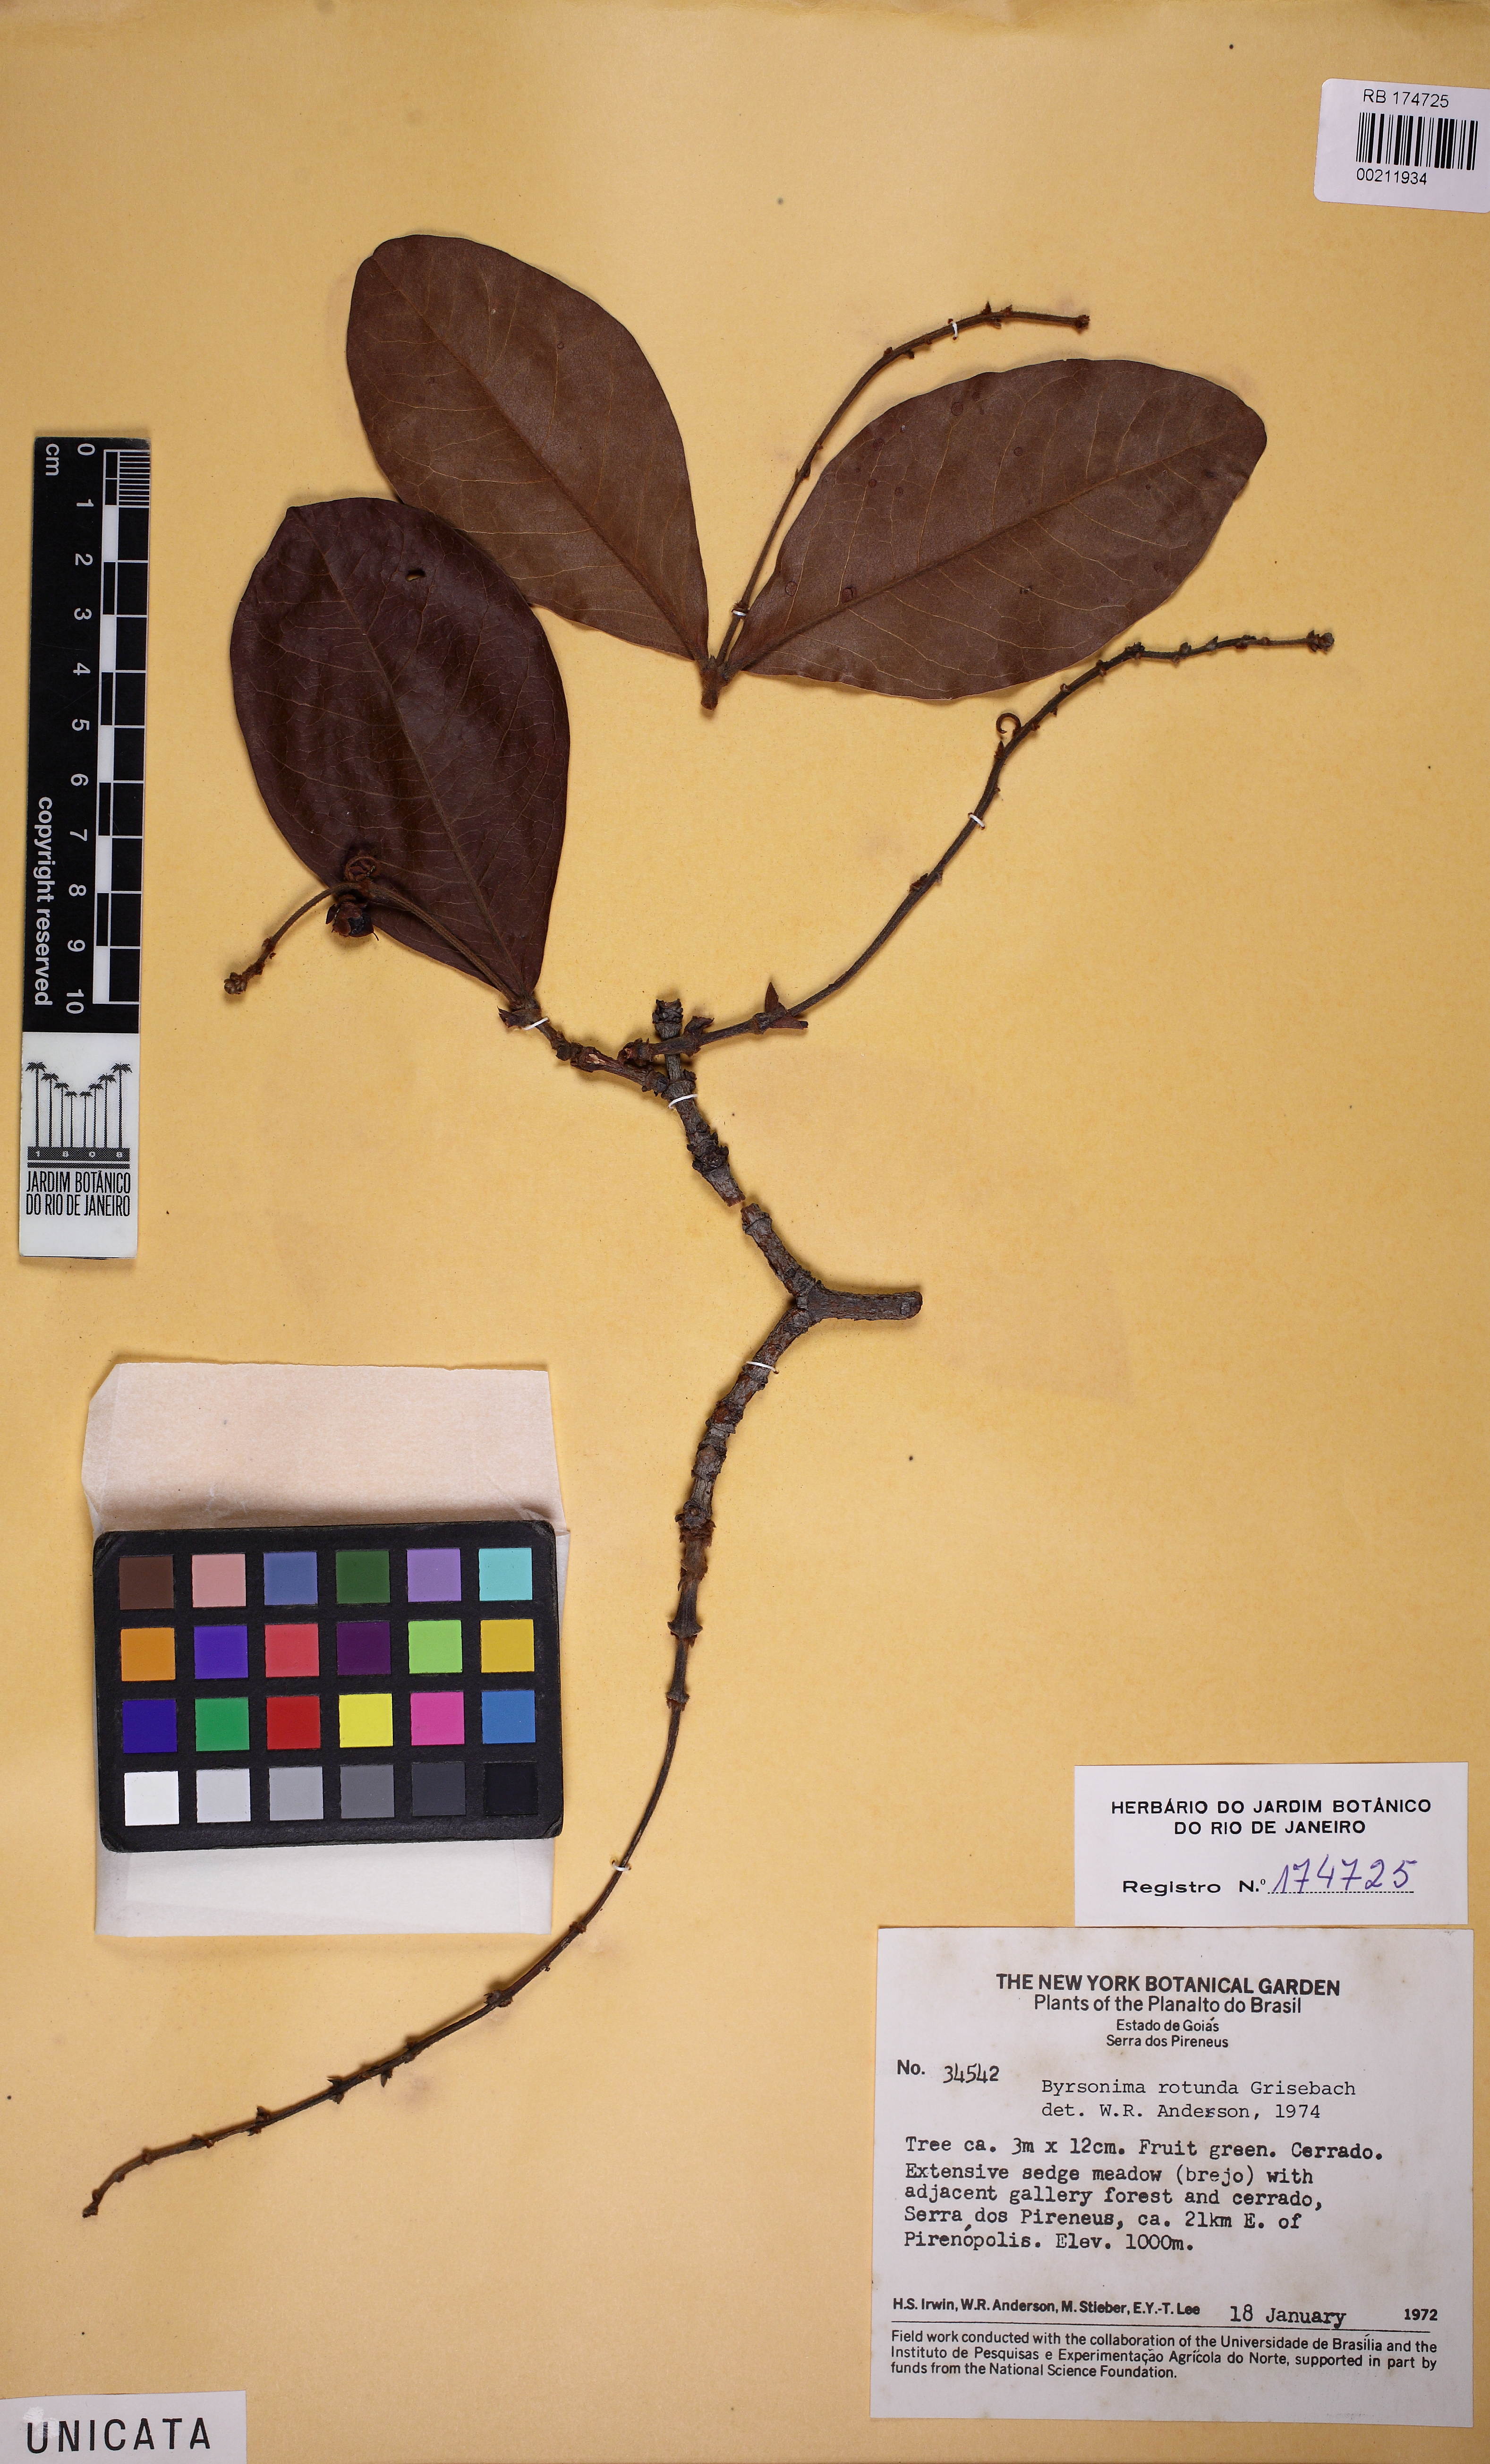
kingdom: Plantae
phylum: Tracheophyta
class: Magnoliopsida
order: Malpighiales
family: Malpighiaceae
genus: Byrsonima
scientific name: Byrsonima rotunda
